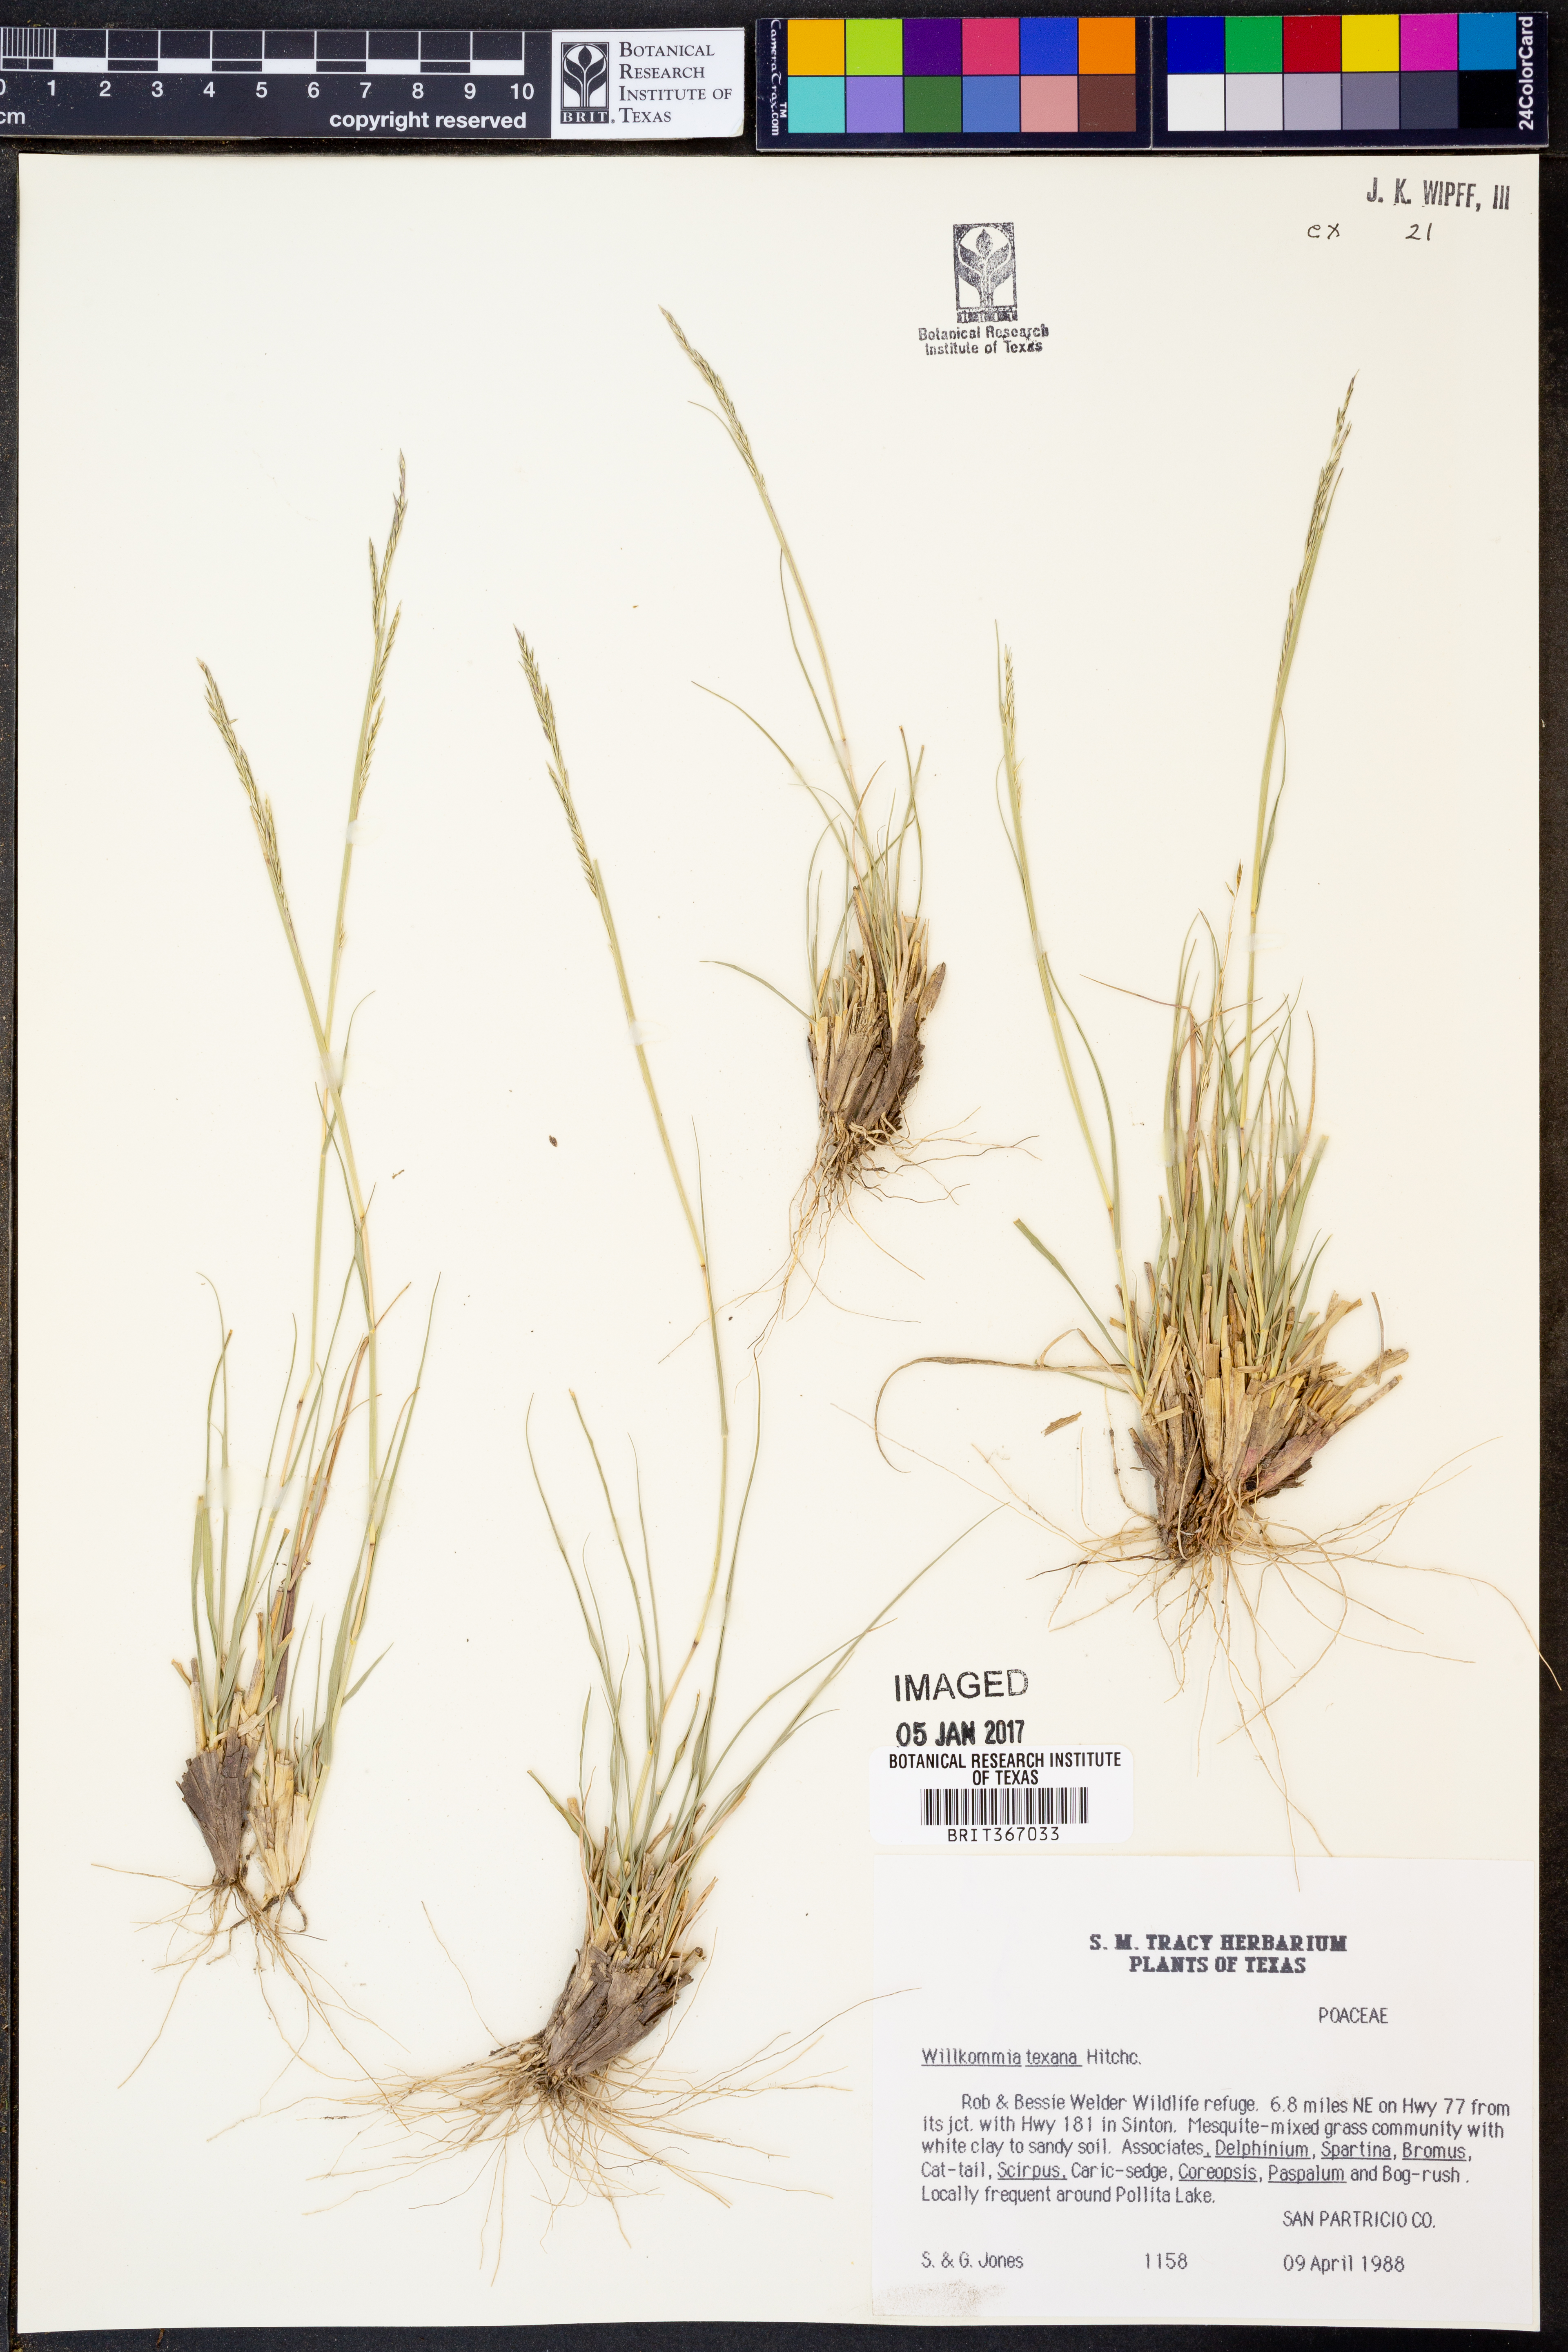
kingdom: Plantae
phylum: Tracheophyta
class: Liliopsida
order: Poales
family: Poaceae
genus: Willkommia
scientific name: Willkommia texana
